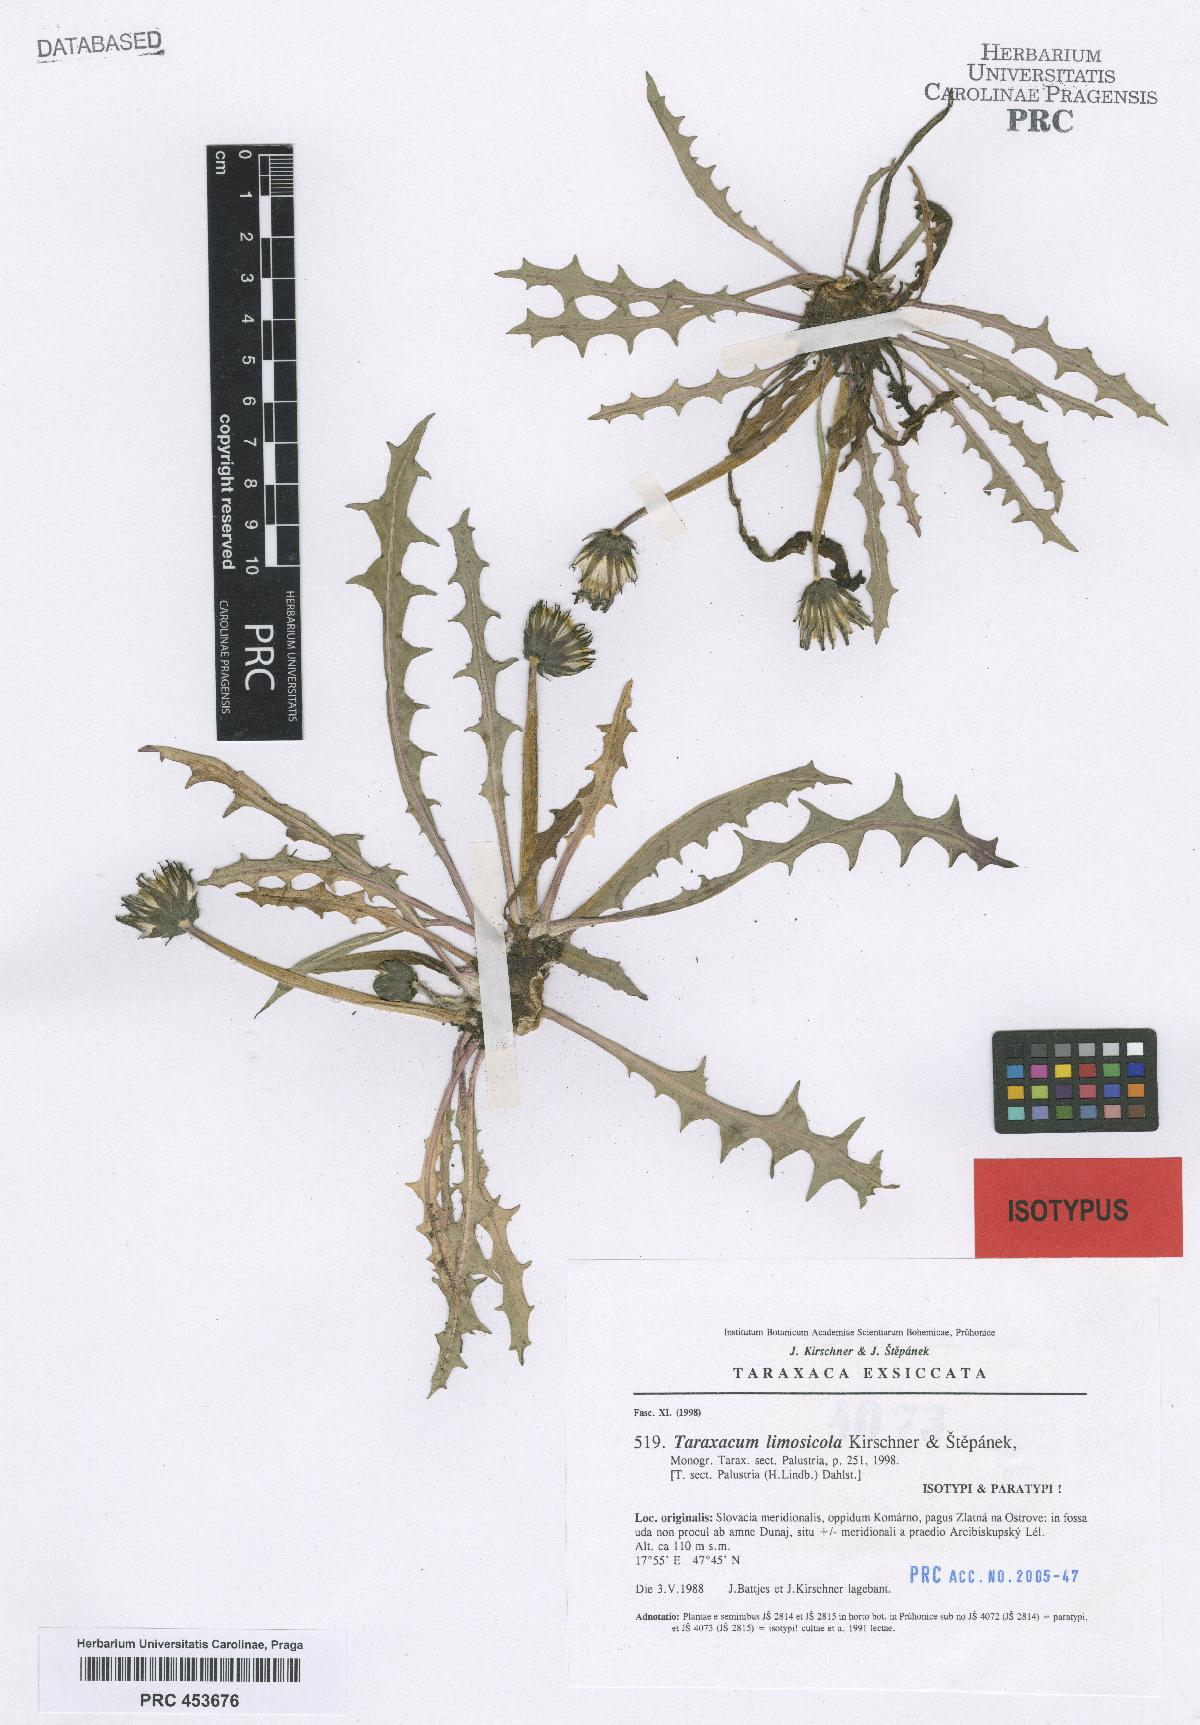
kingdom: Plantae
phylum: Tracheophyta
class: Magnoliopsida
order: Asterales
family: Asteraceae
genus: Taraxacum
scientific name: Taraxacum limosicola
